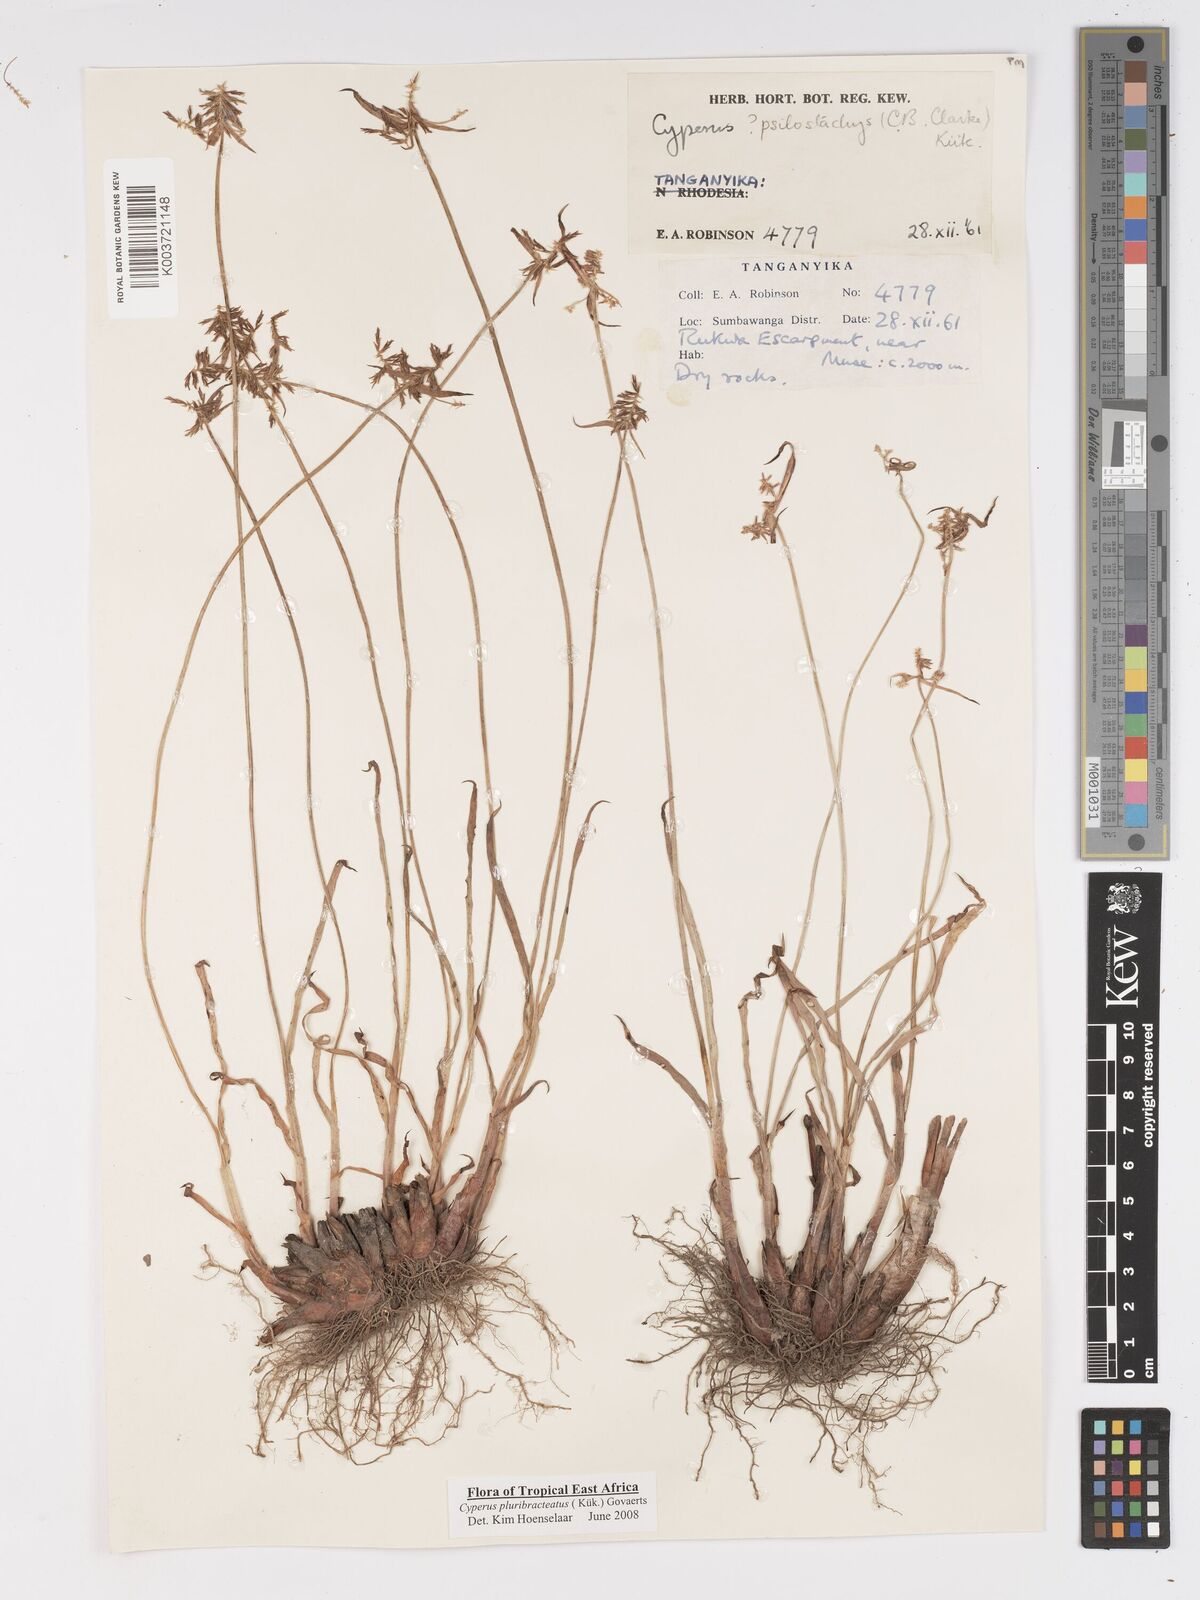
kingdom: Plantae
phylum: Tracheophyta
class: Liliopsida
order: Poales
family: Cyperaceae
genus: Cyperus
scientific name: Cyperus trigonellus
